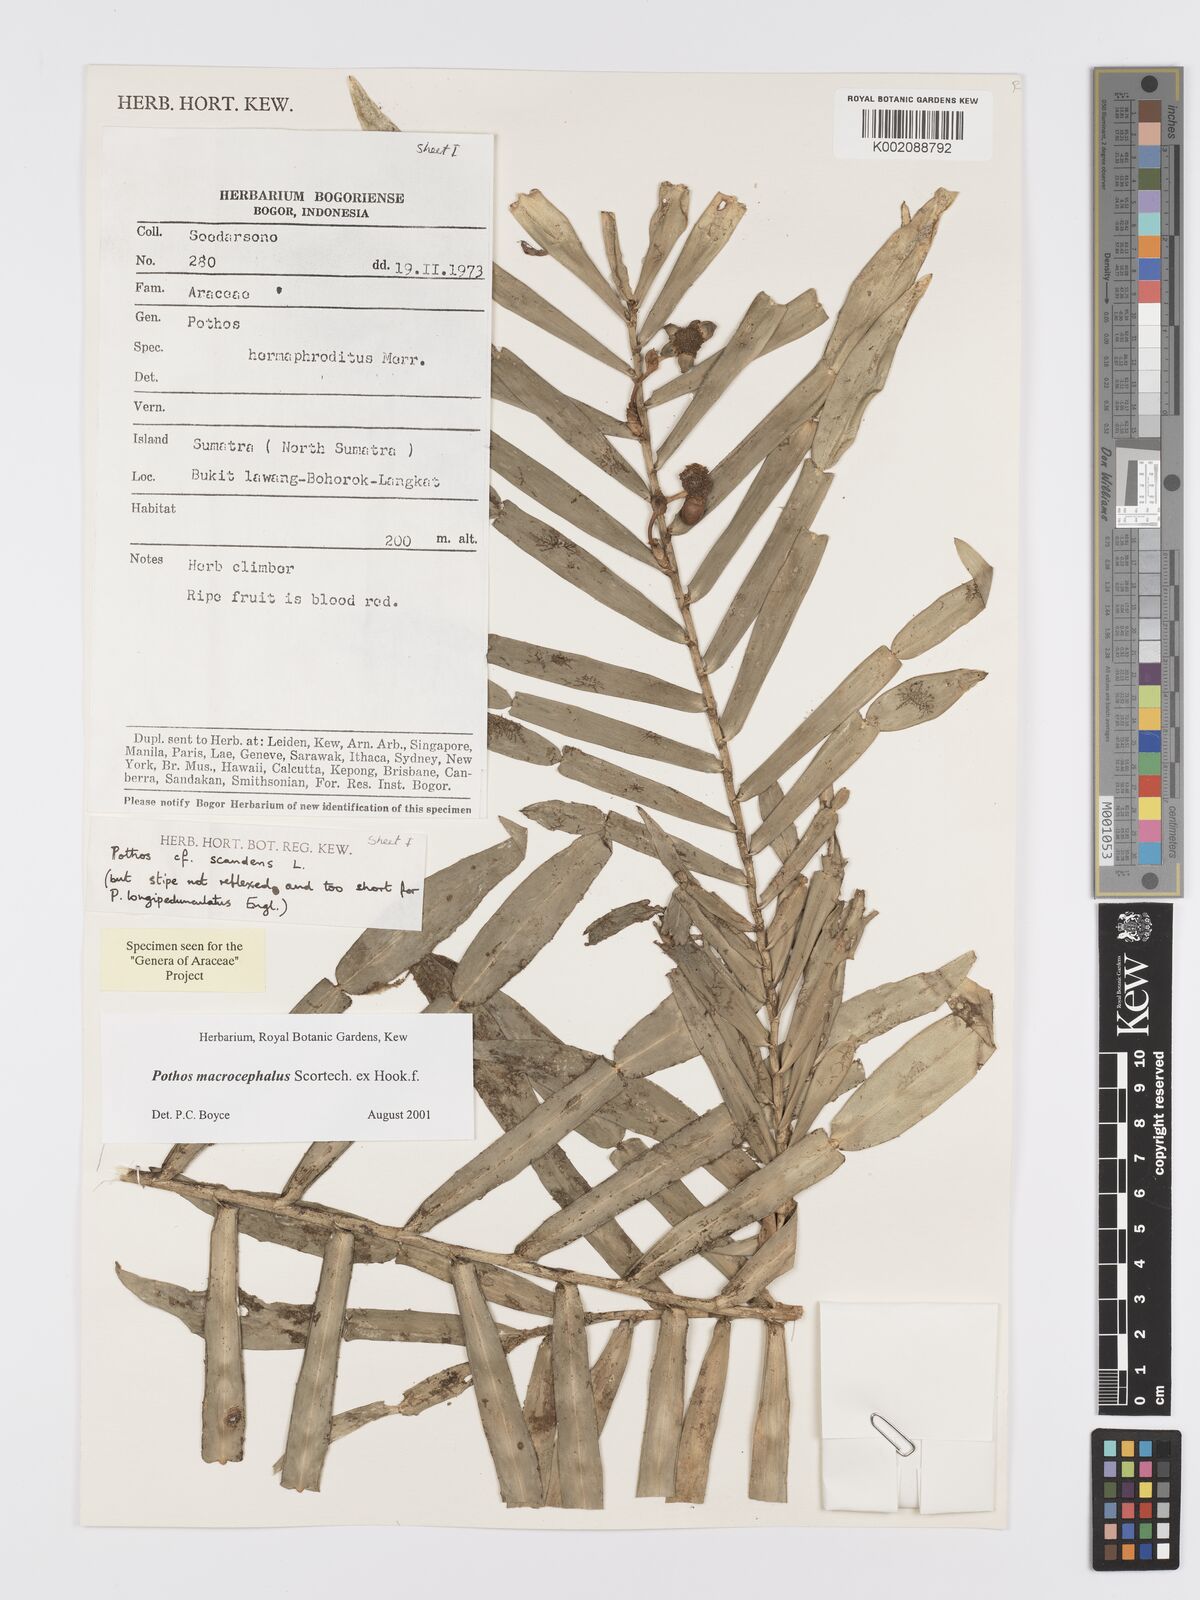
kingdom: Plantae
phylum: Tracheophyta
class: Liliopsida
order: Alismatales
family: Araceae
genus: Pothos
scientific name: Pothos macrocephalus
